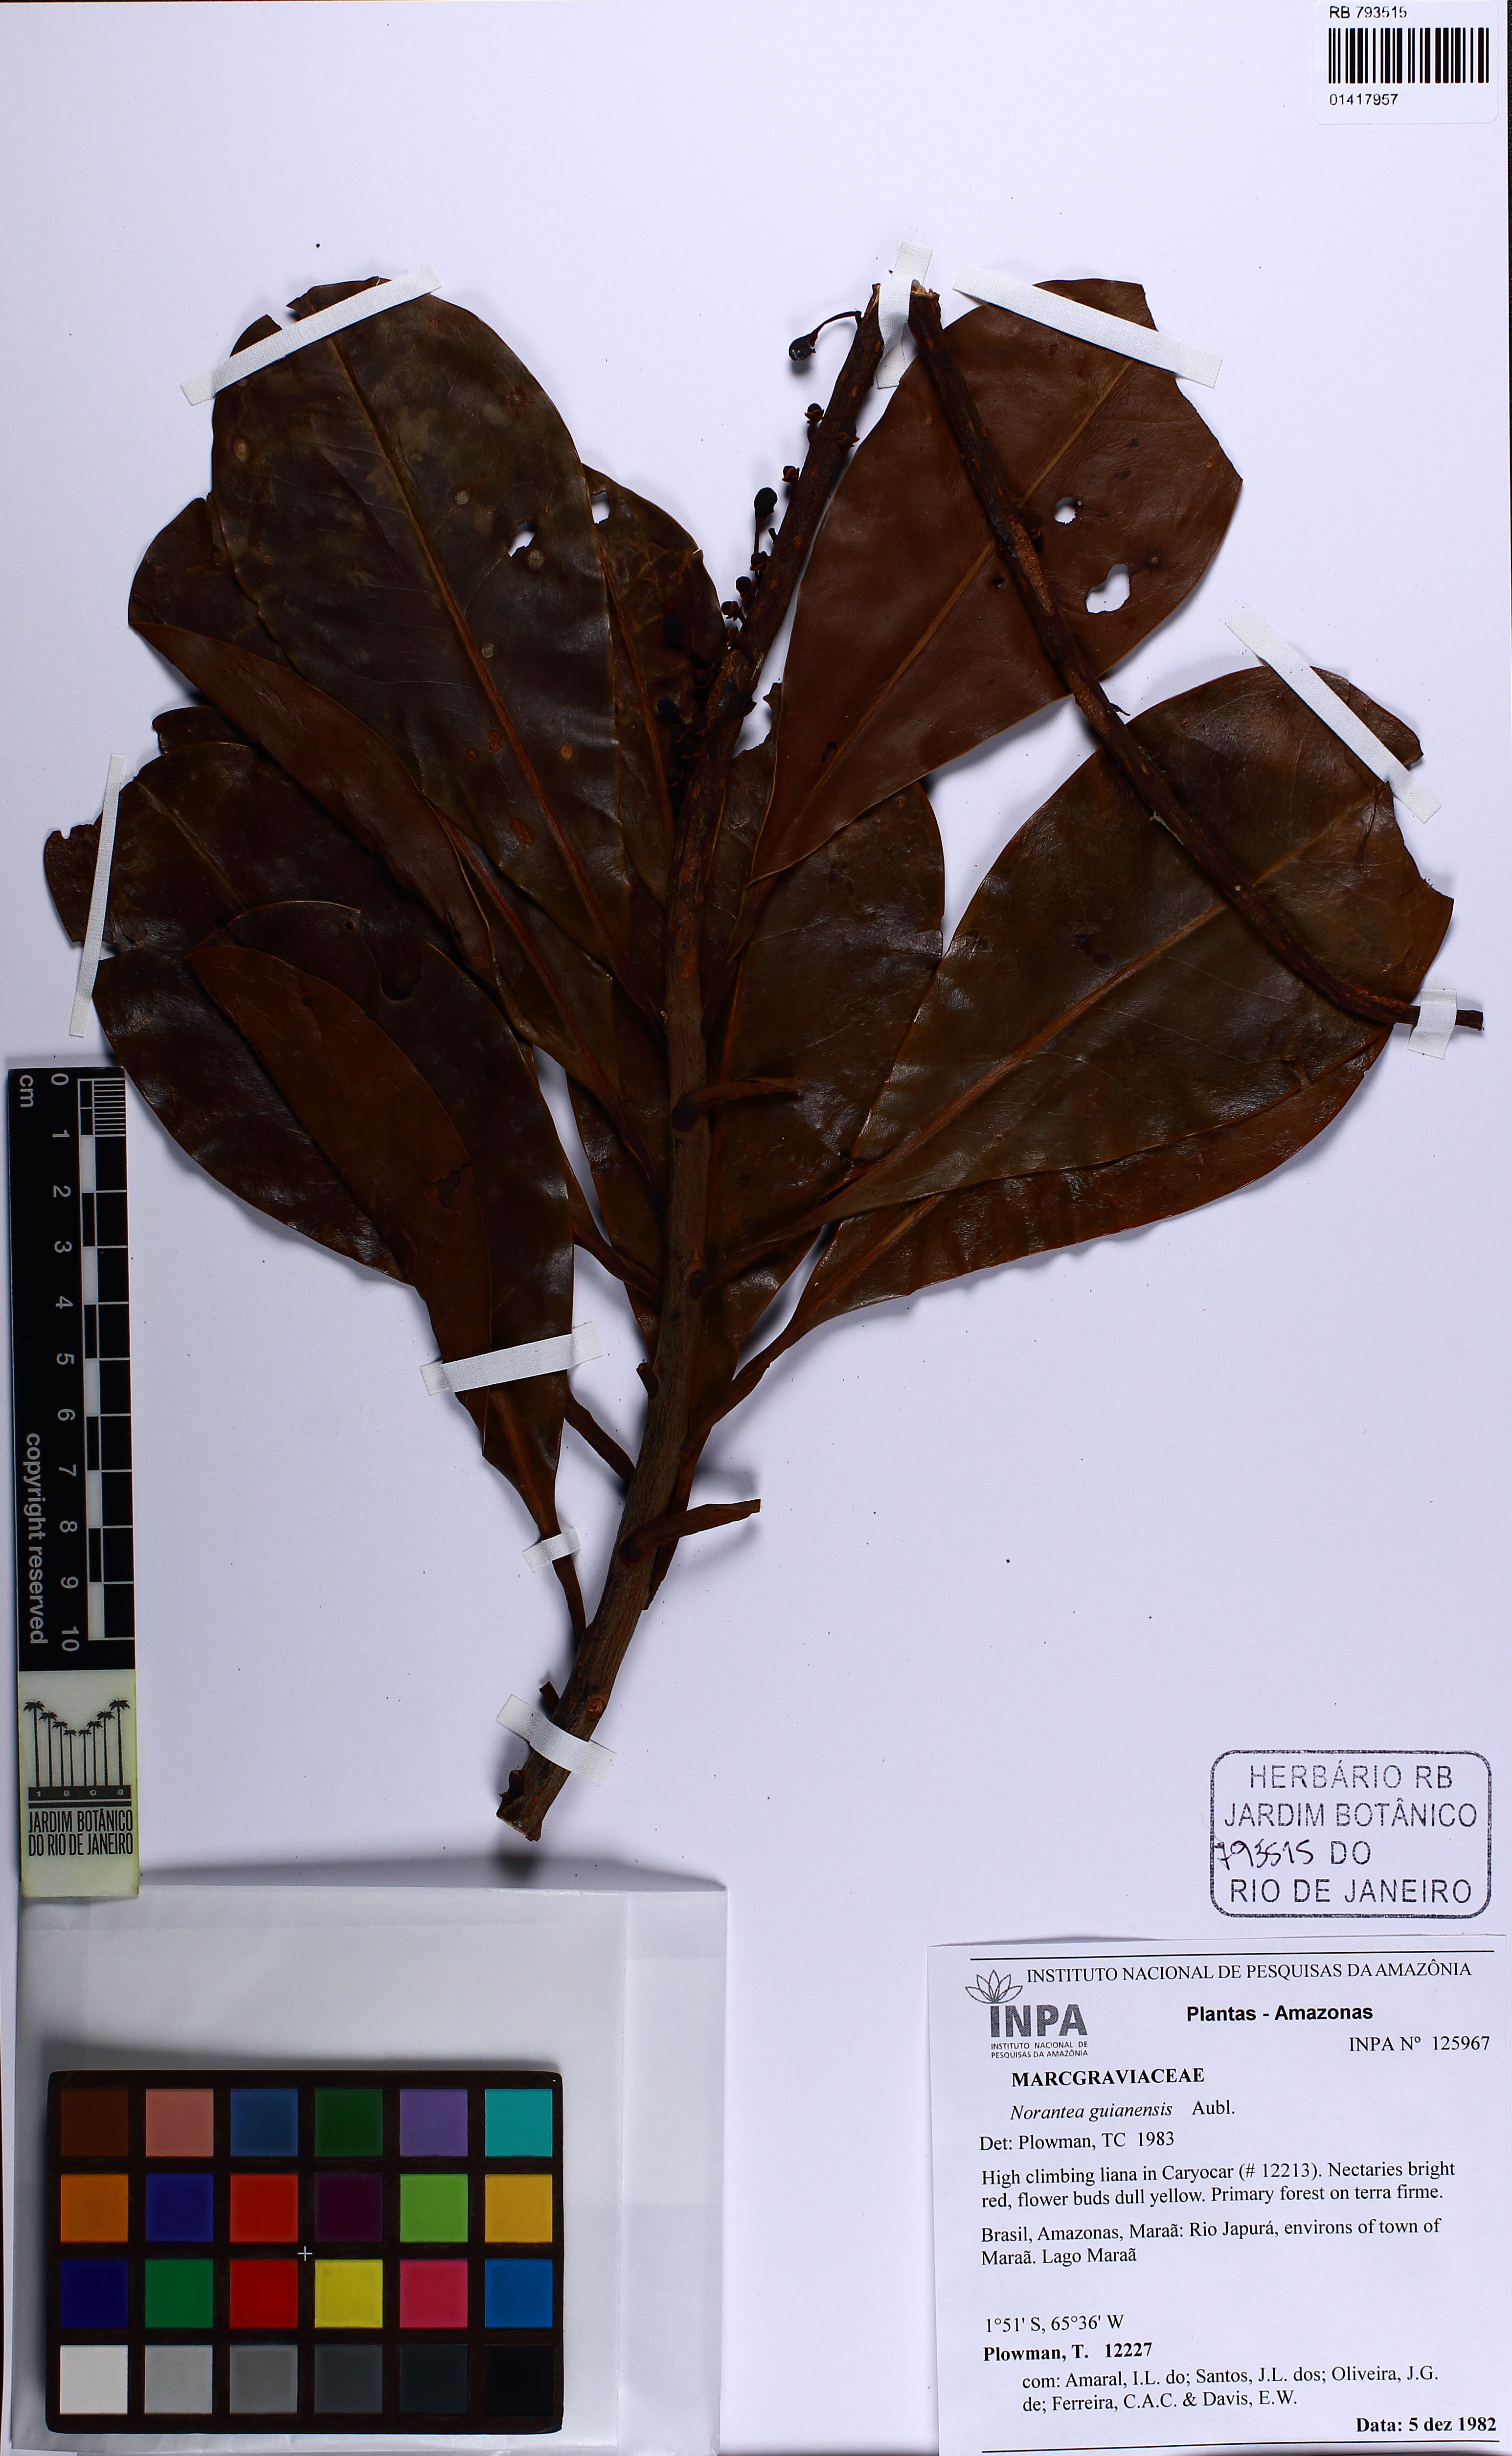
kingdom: Plantae
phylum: Tracheophyta
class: Magnoliopsida
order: Ericales
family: Marcgraviaceae
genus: Norantea
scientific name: Norantea guianensis
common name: Red hot poker vine
